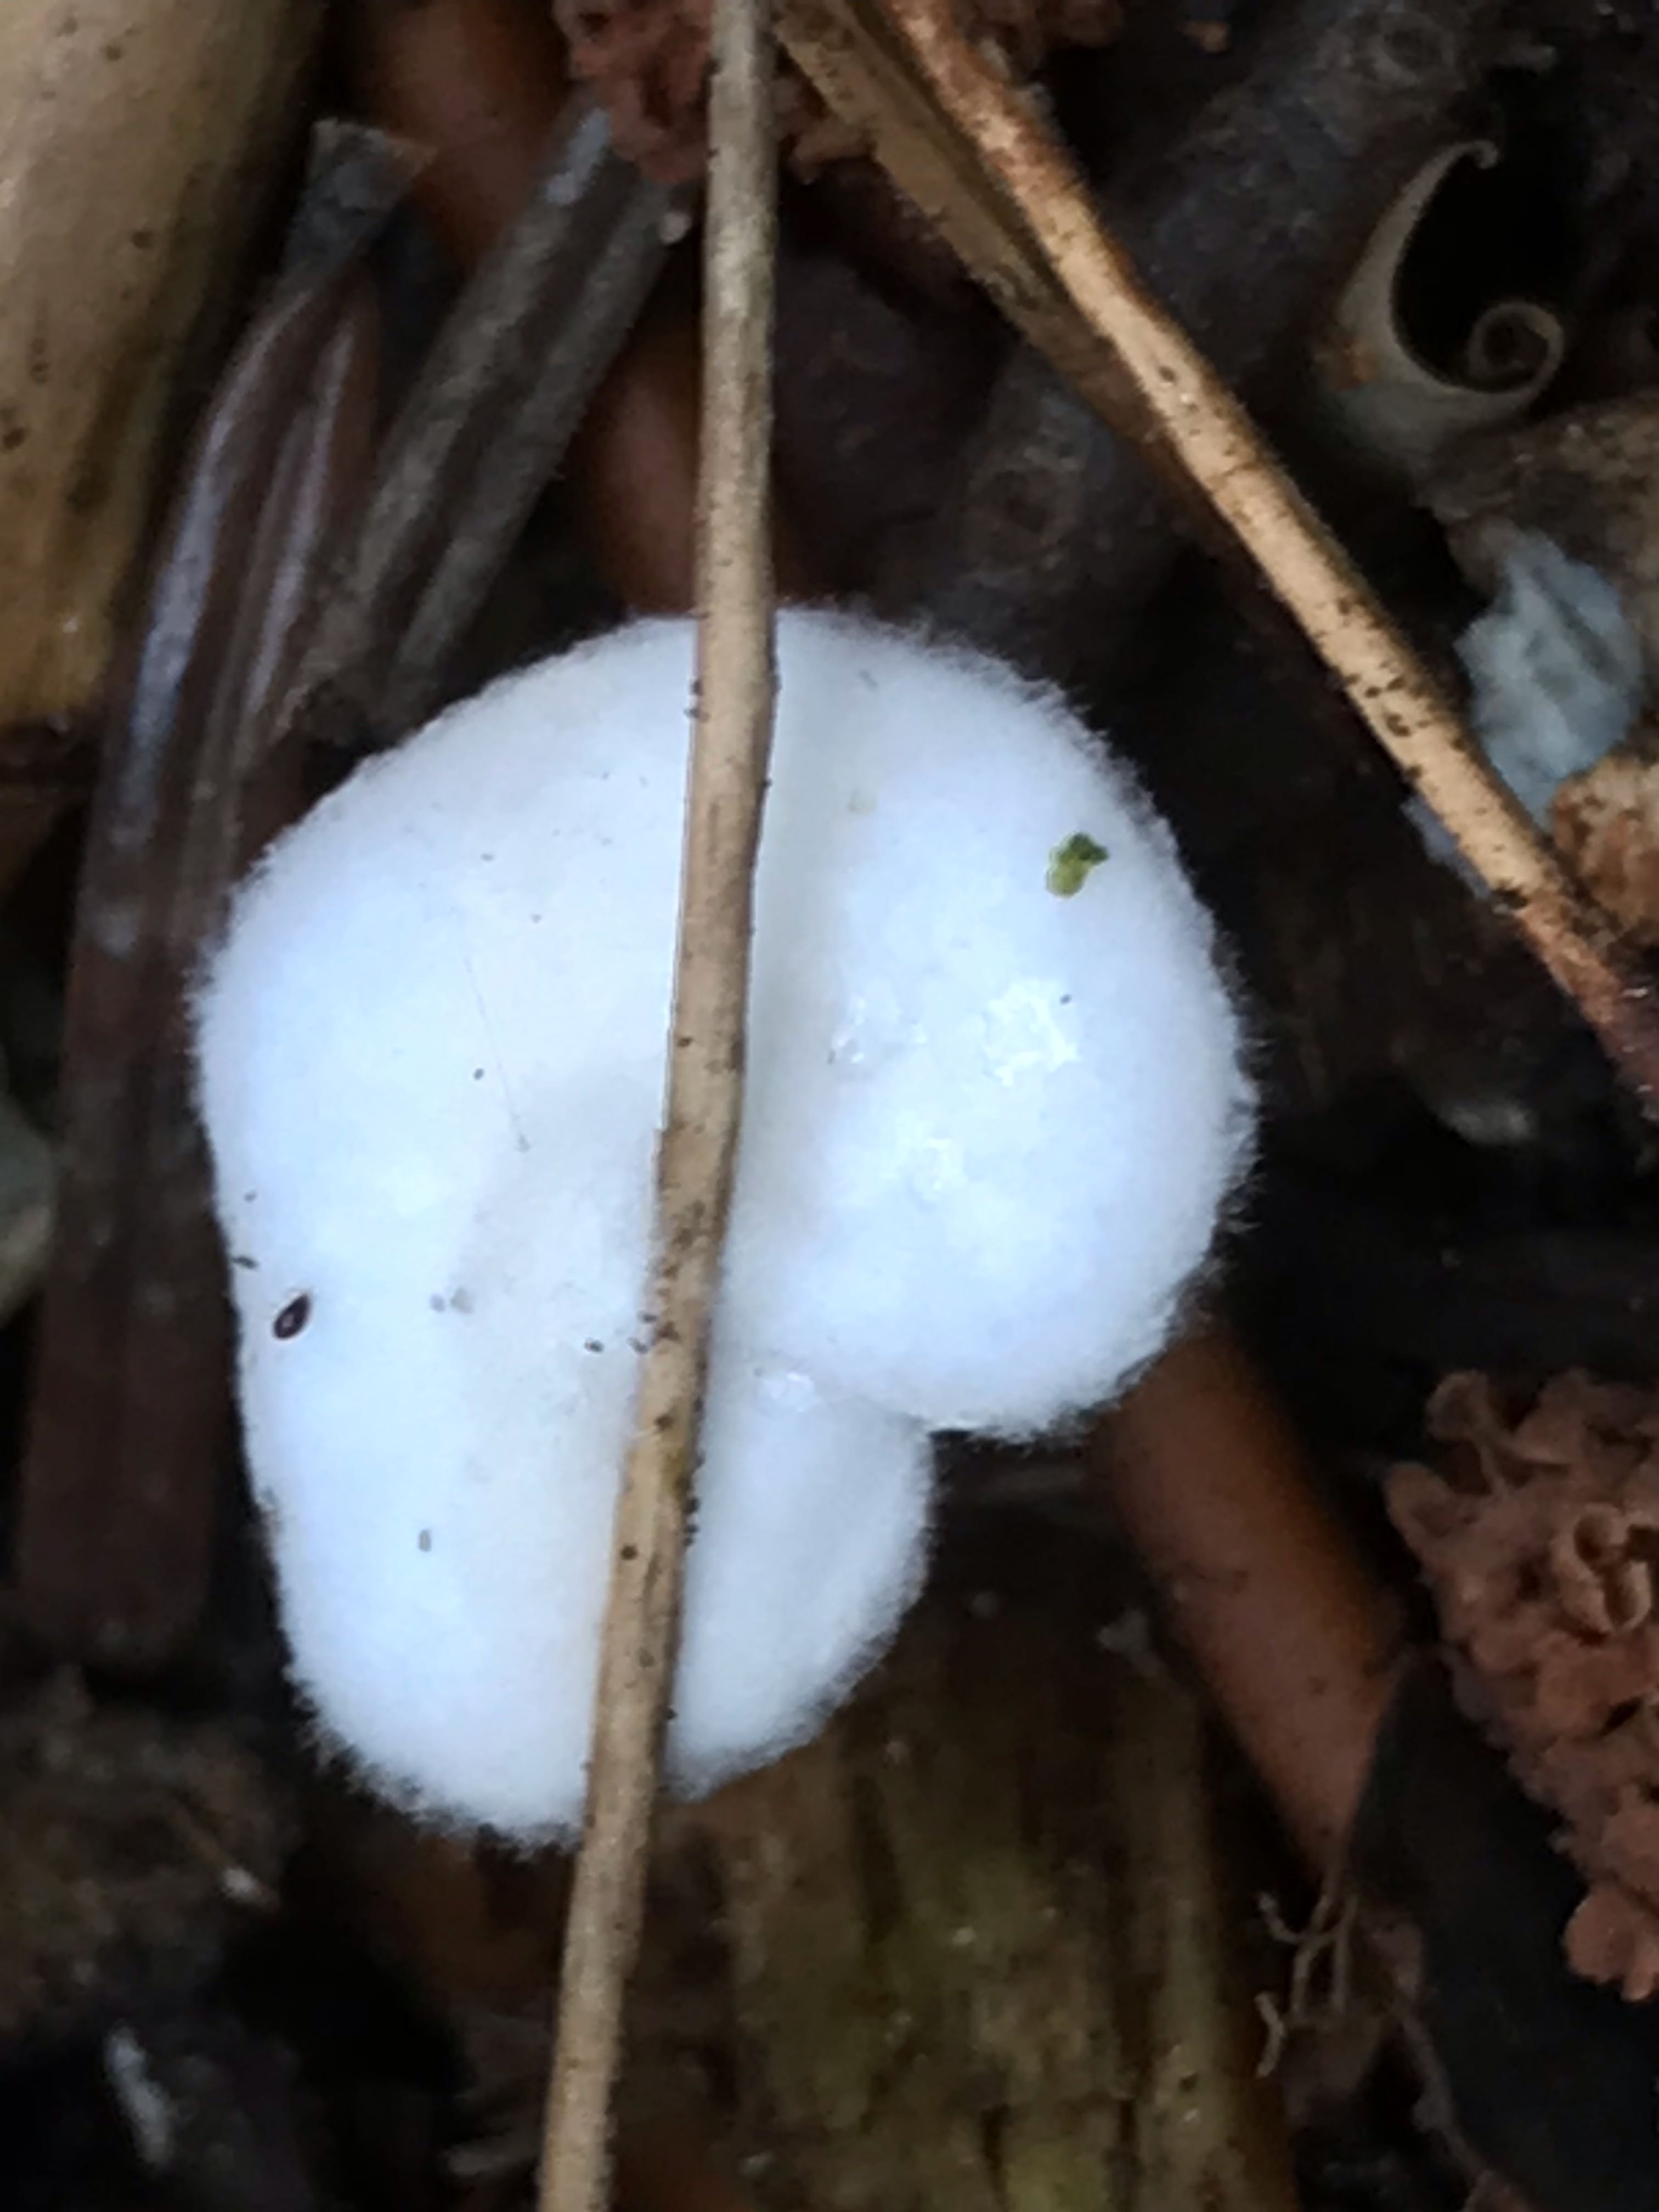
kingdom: Fungi
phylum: Basidiomycota
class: Agaricomycetes
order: Agaricales
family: Crepidotaceae
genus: Crepidotus
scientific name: Crepidotus
